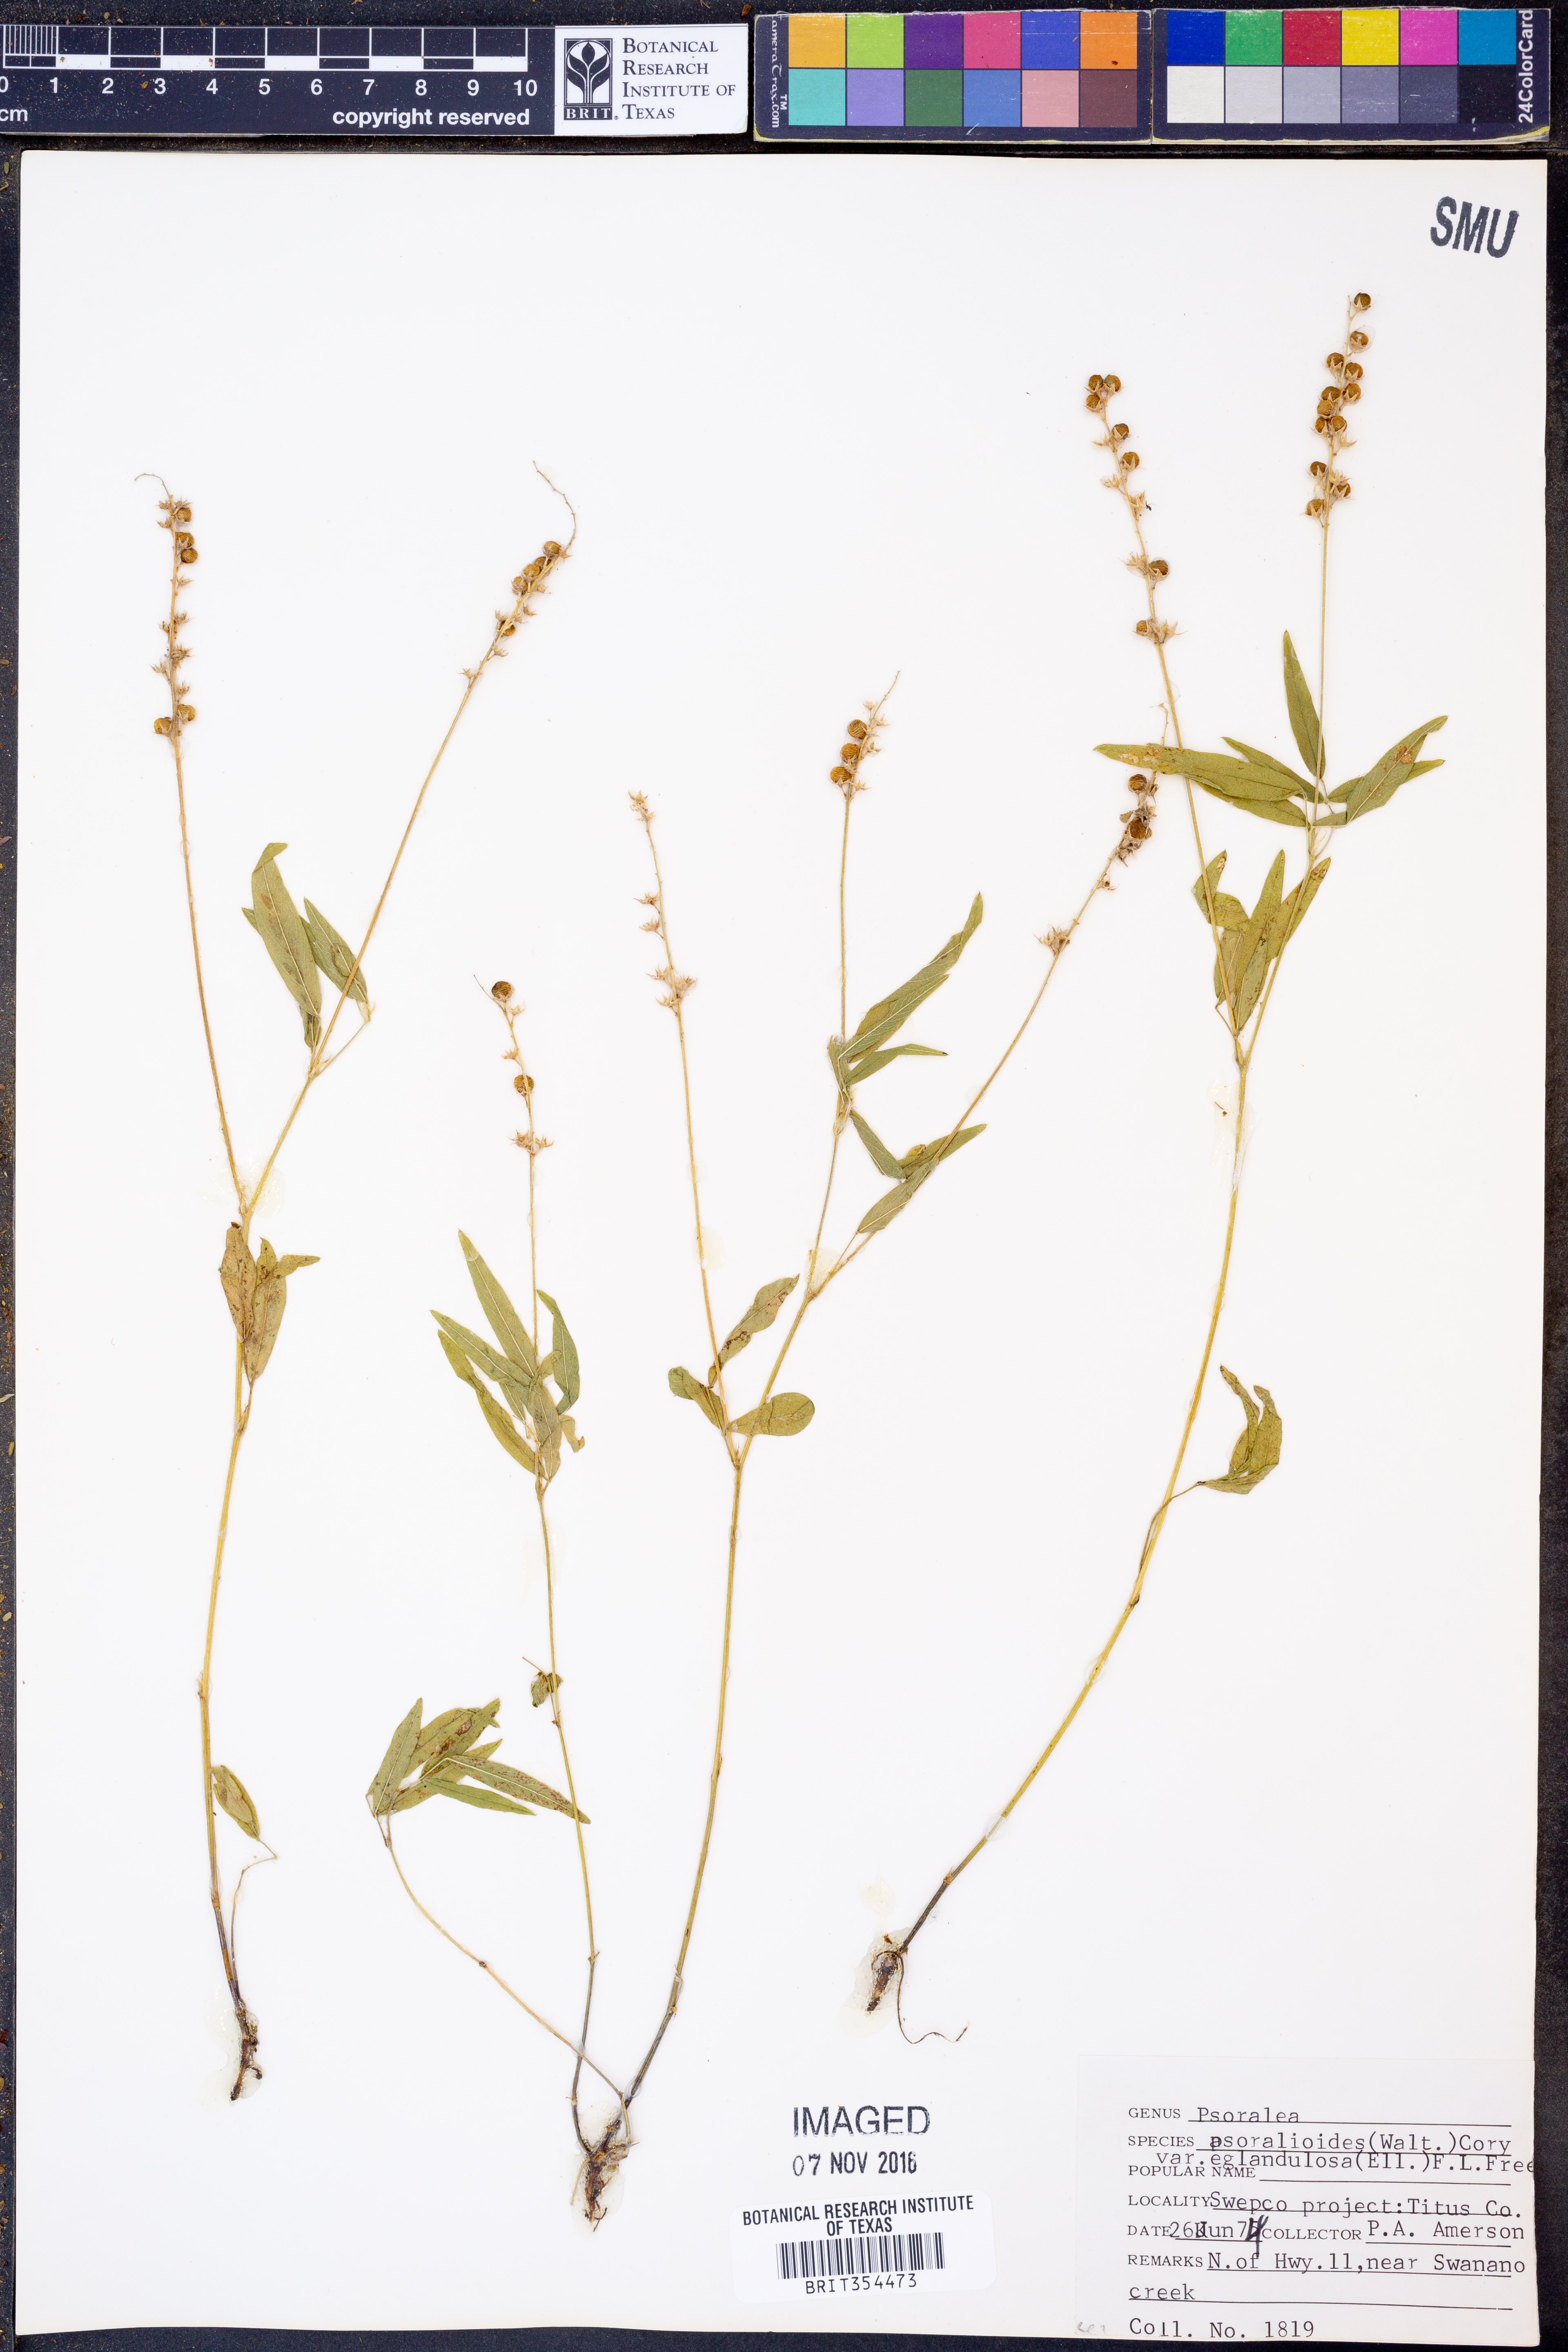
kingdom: Plantae
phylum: Tracheophyta
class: Magnoliopsida
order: Fabales
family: Fabaceae
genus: Orbexilum
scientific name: Orbexilum pedunculatum
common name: Sampson's snakeroot
